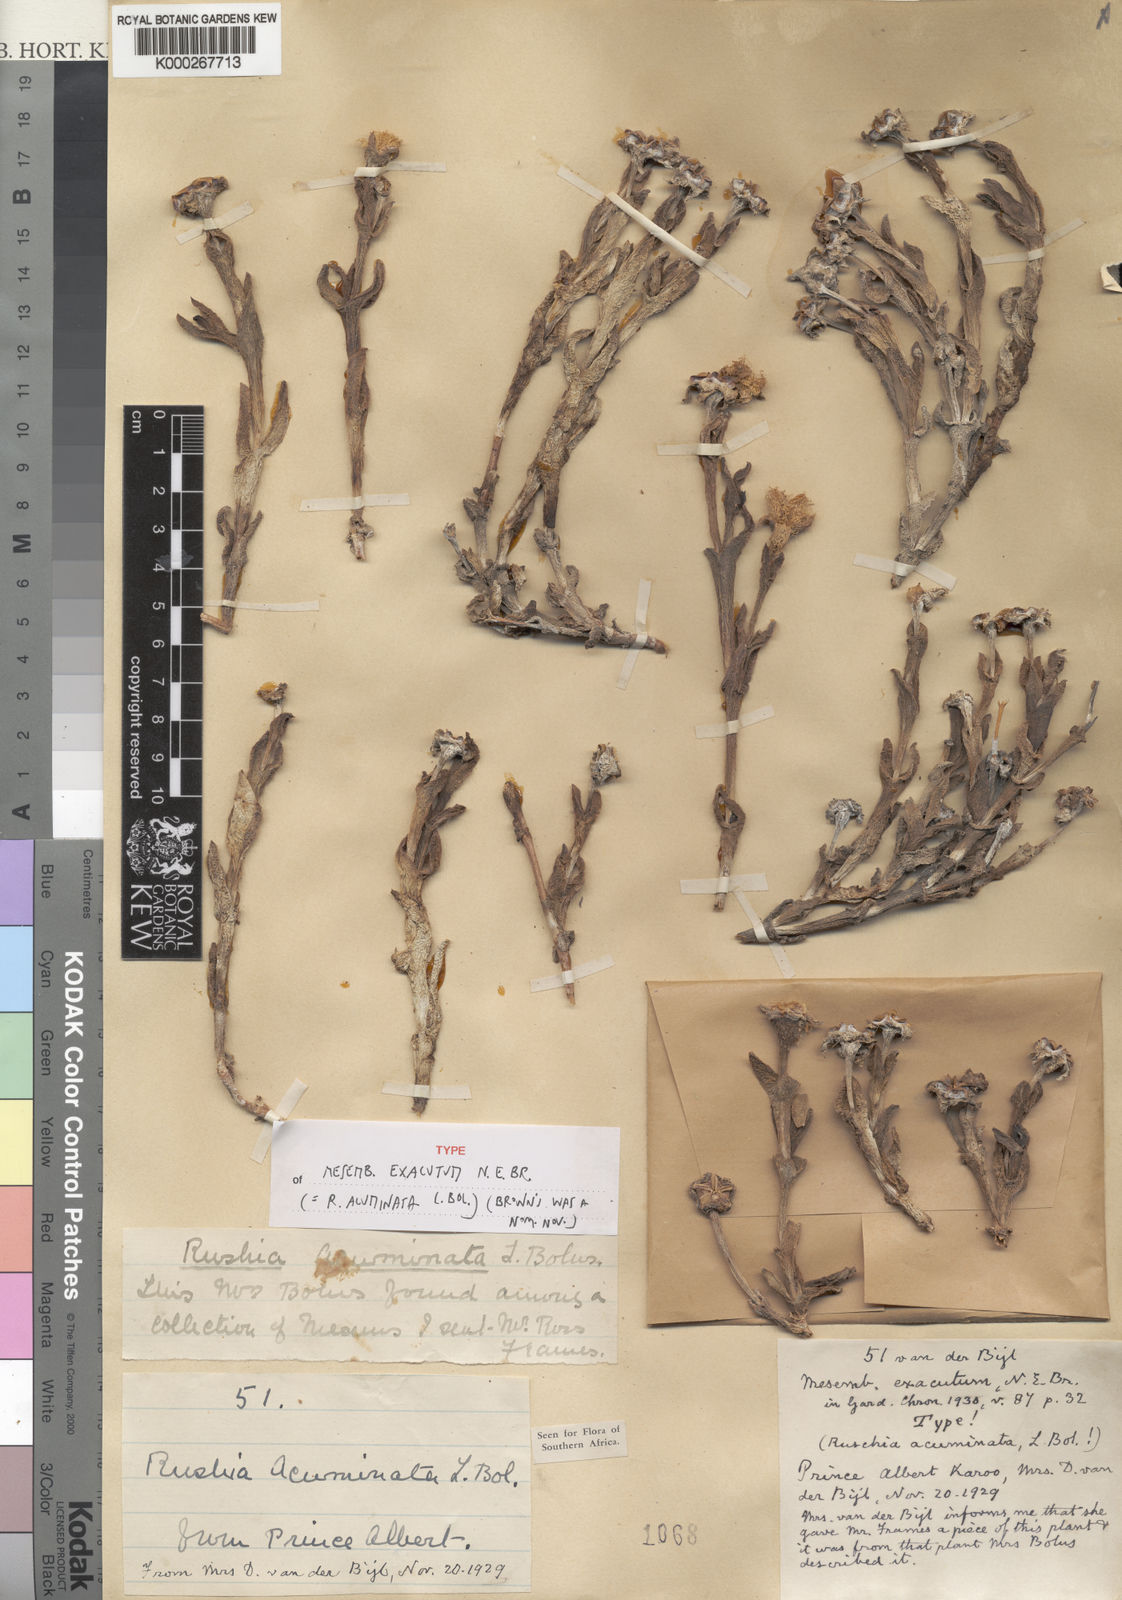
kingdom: Plantae
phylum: Tracheophyta
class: Magnoliopsida
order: Caryophyllales
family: Aizoaceae
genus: Ruschia
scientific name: Ruschia acuminata
